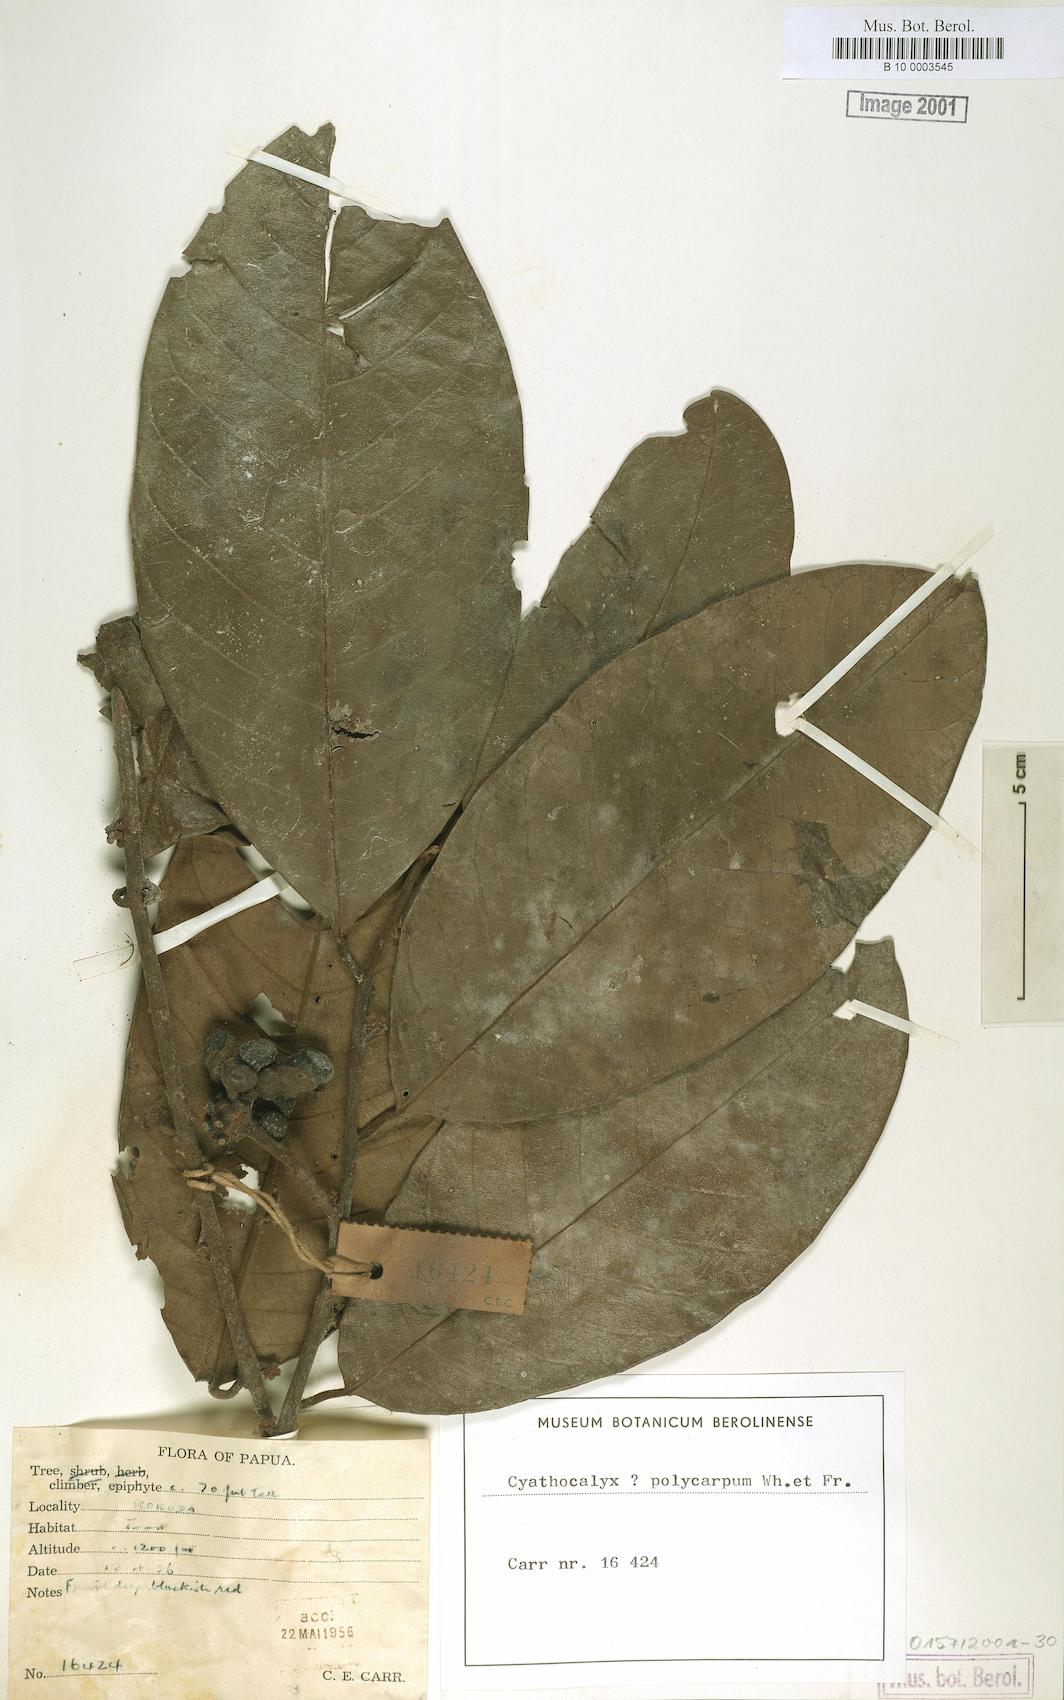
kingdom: Plantae
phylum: Tracheophyta
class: Magnoliopsida
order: Magnoliales
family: Annonaceae
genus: Drepananthus
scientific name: Drepananthus polycarpus
